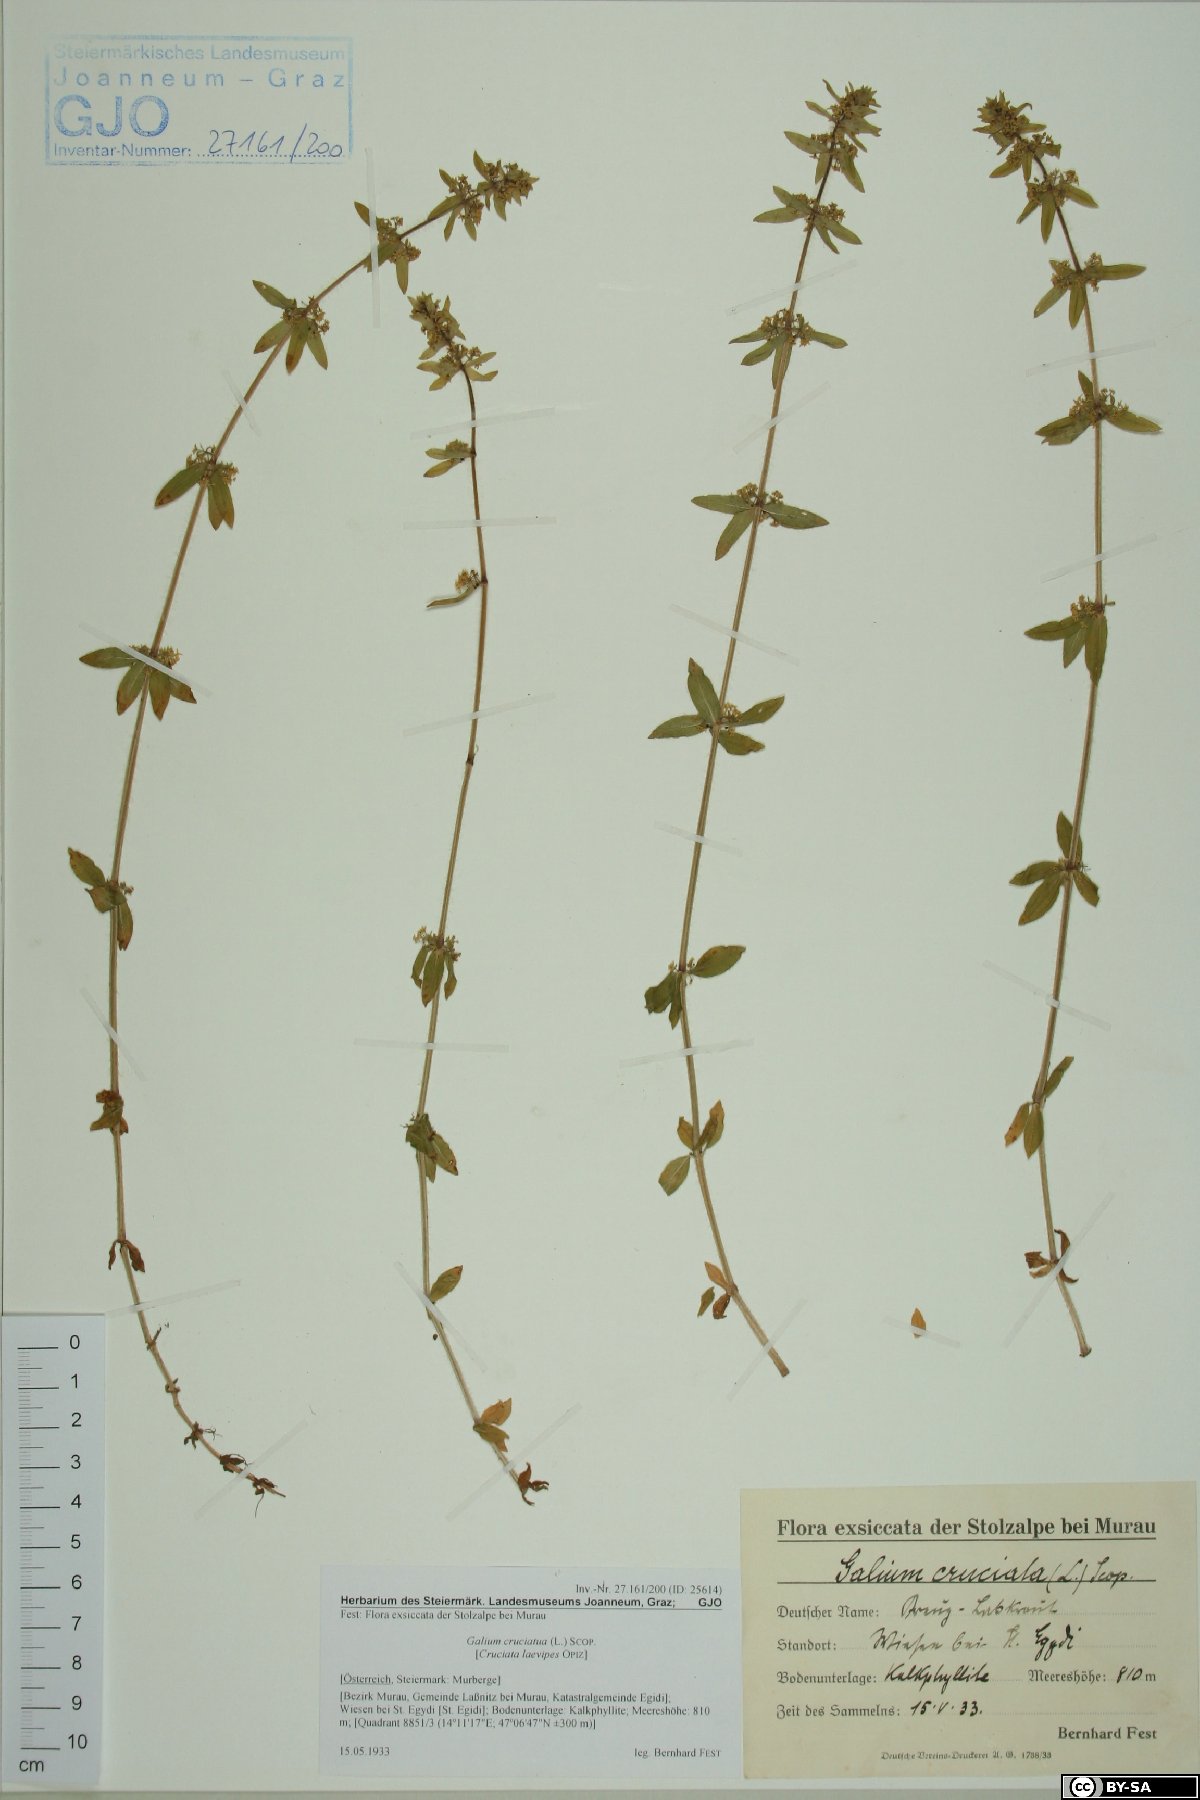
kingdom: Plantae
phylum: Tracheophyta
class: Magnoliopsida
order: Gentianales
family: Rubiaceae
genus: Cruciata
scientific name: Cruciata laevipes
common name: Crosswort
